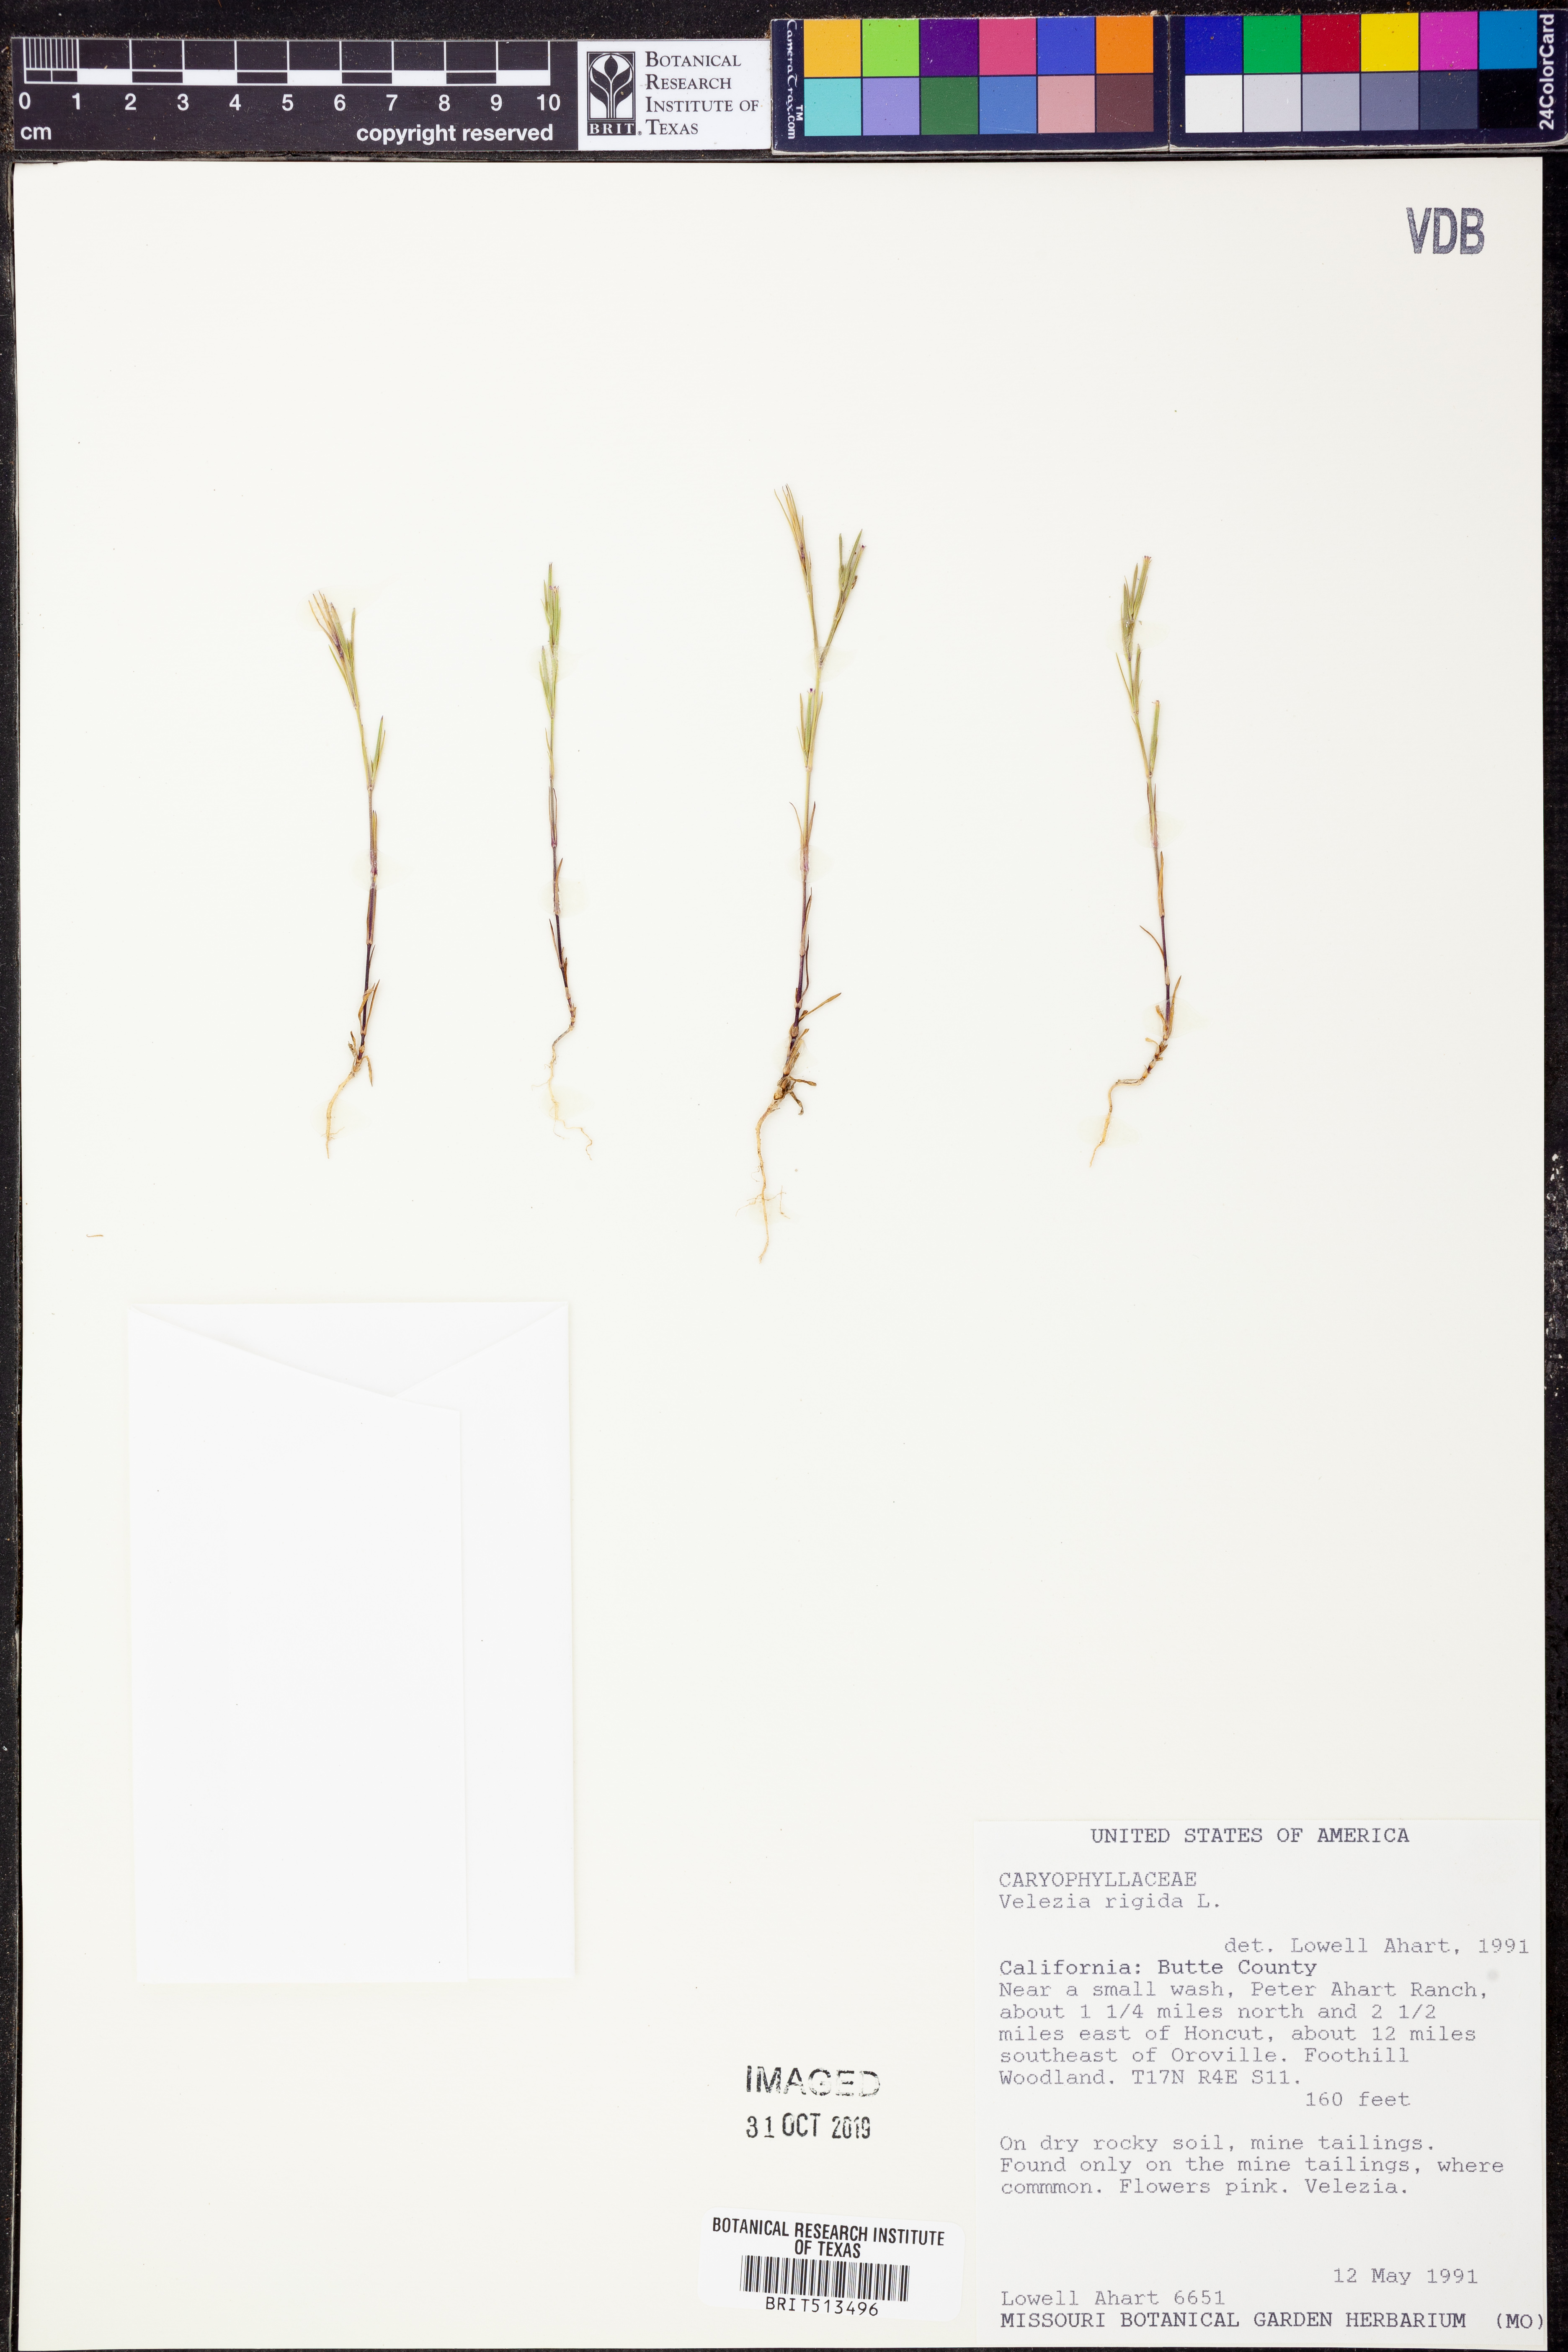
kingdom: Plantae
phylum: Tracheophyta
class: Magnoliopsida
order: Caryophyllales
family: Caryophyllaceae
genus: Dianthus
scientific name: Dianthus nudiflorus
